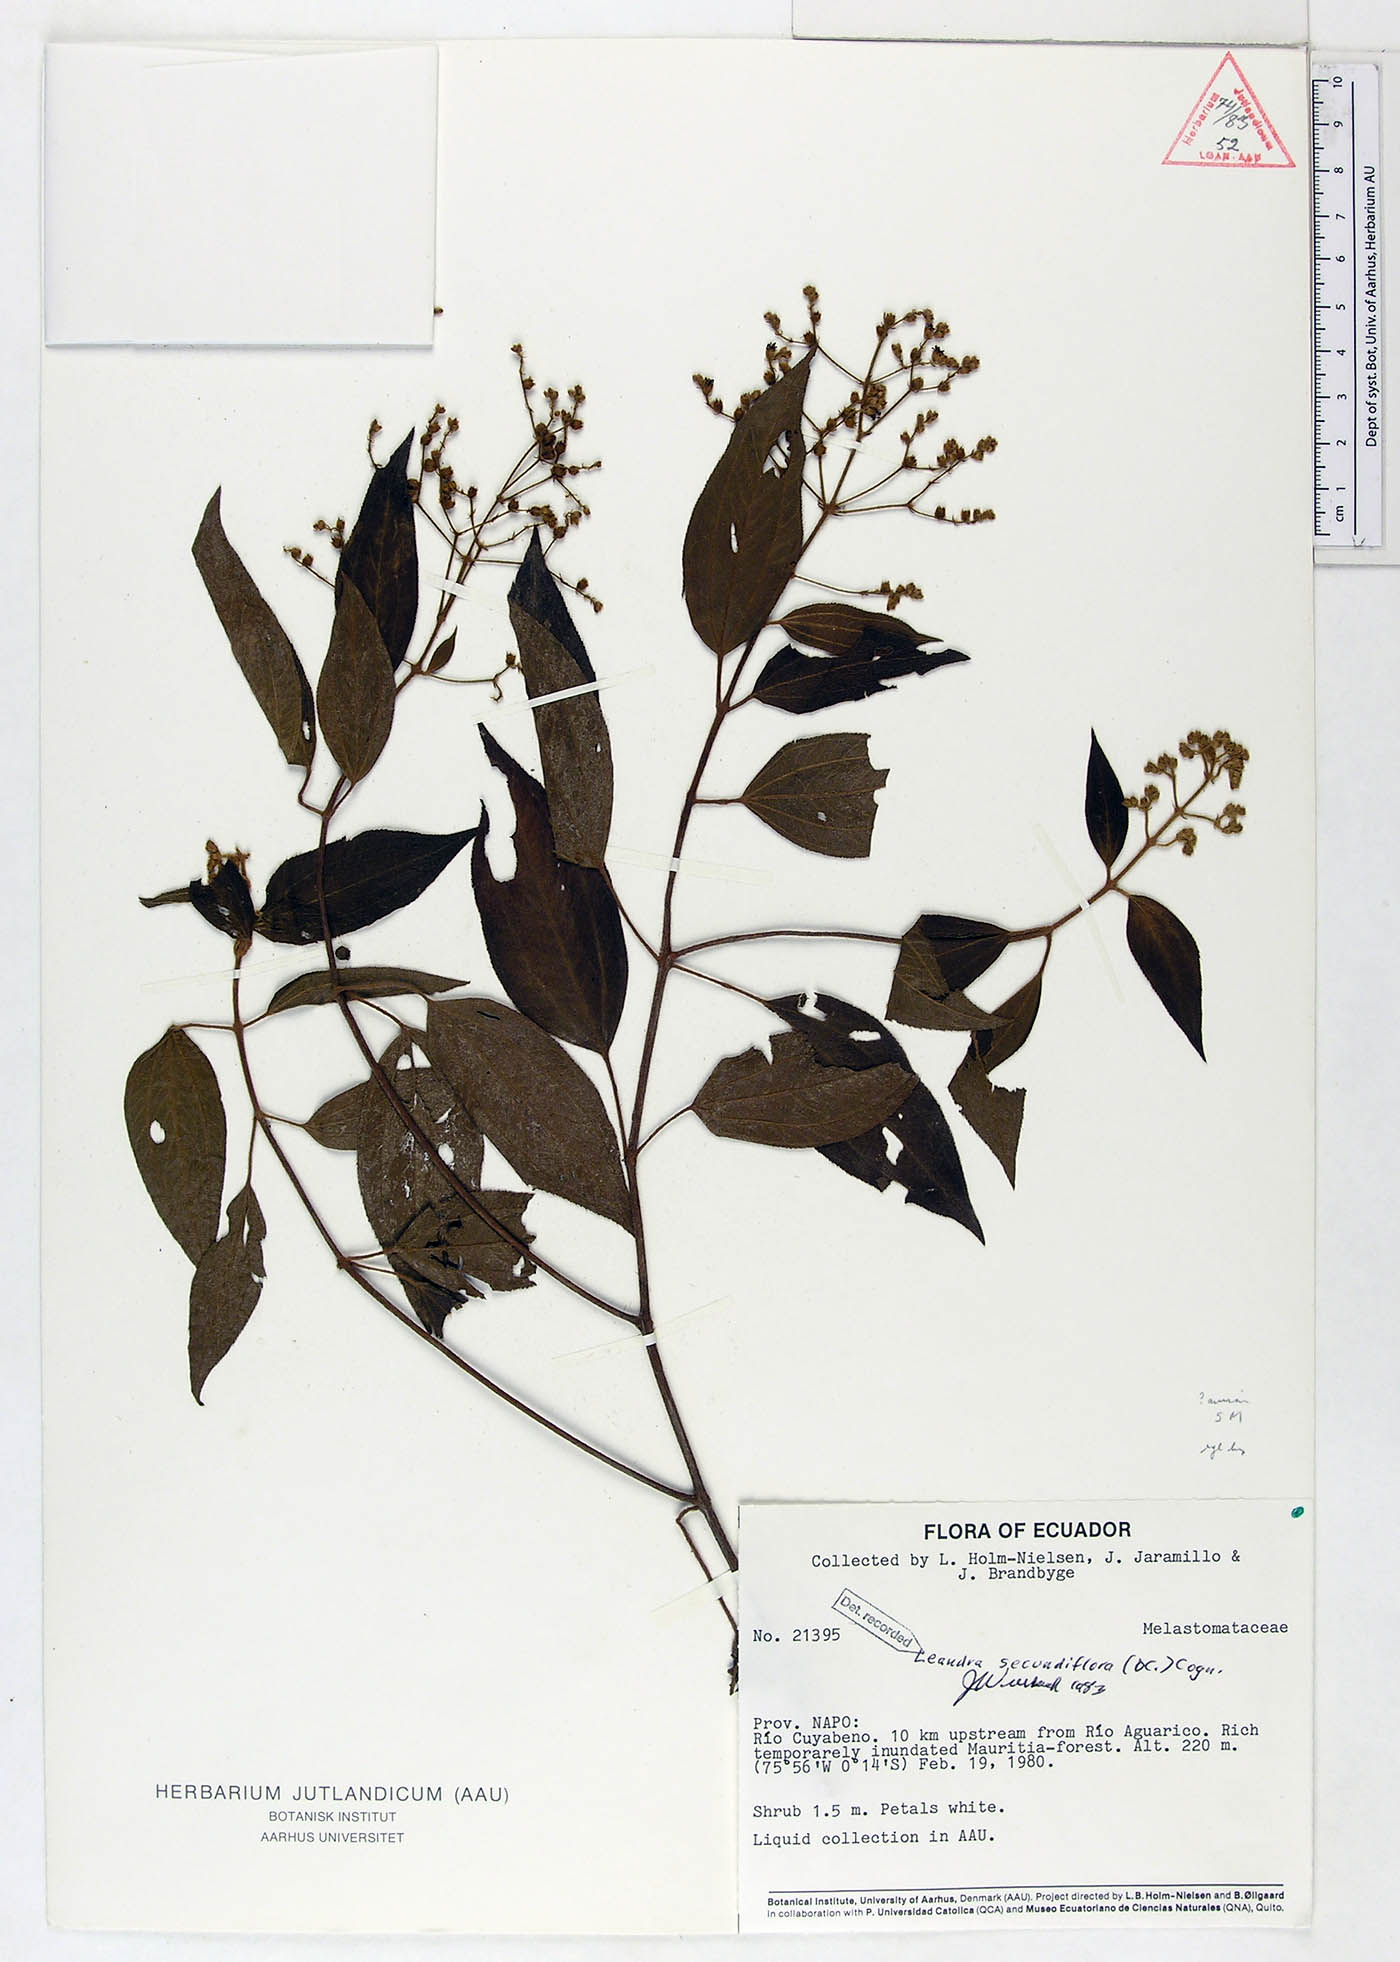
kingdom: Plantae
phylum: Tracheophyta
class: Magnoliopsida
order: Myrtales
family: Melastomataceae
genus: Miconia
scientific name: Miconia neosecundiflora
